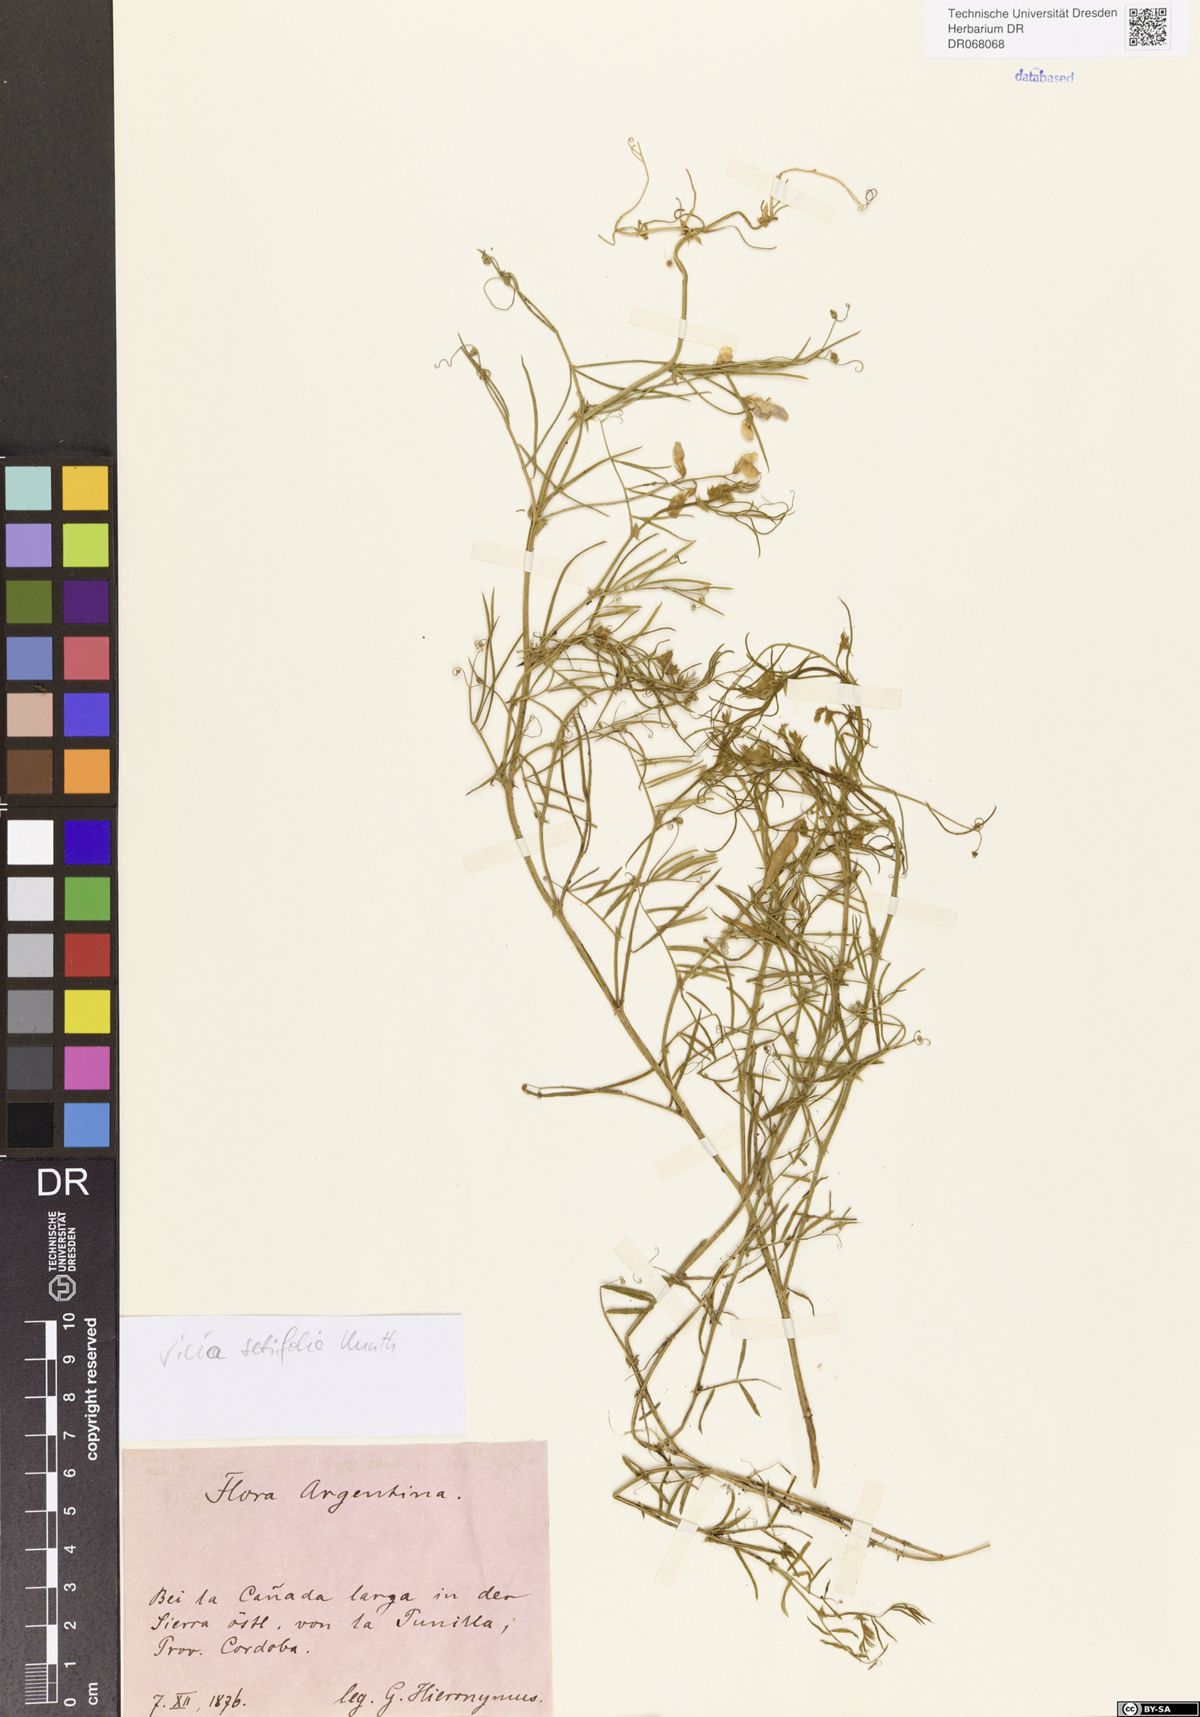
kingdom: Plantae
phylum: Tracheophyta
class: Magnoliopsida
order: Fabales
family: Fabaceae
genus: Vicia
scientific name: Vicia setifolia
